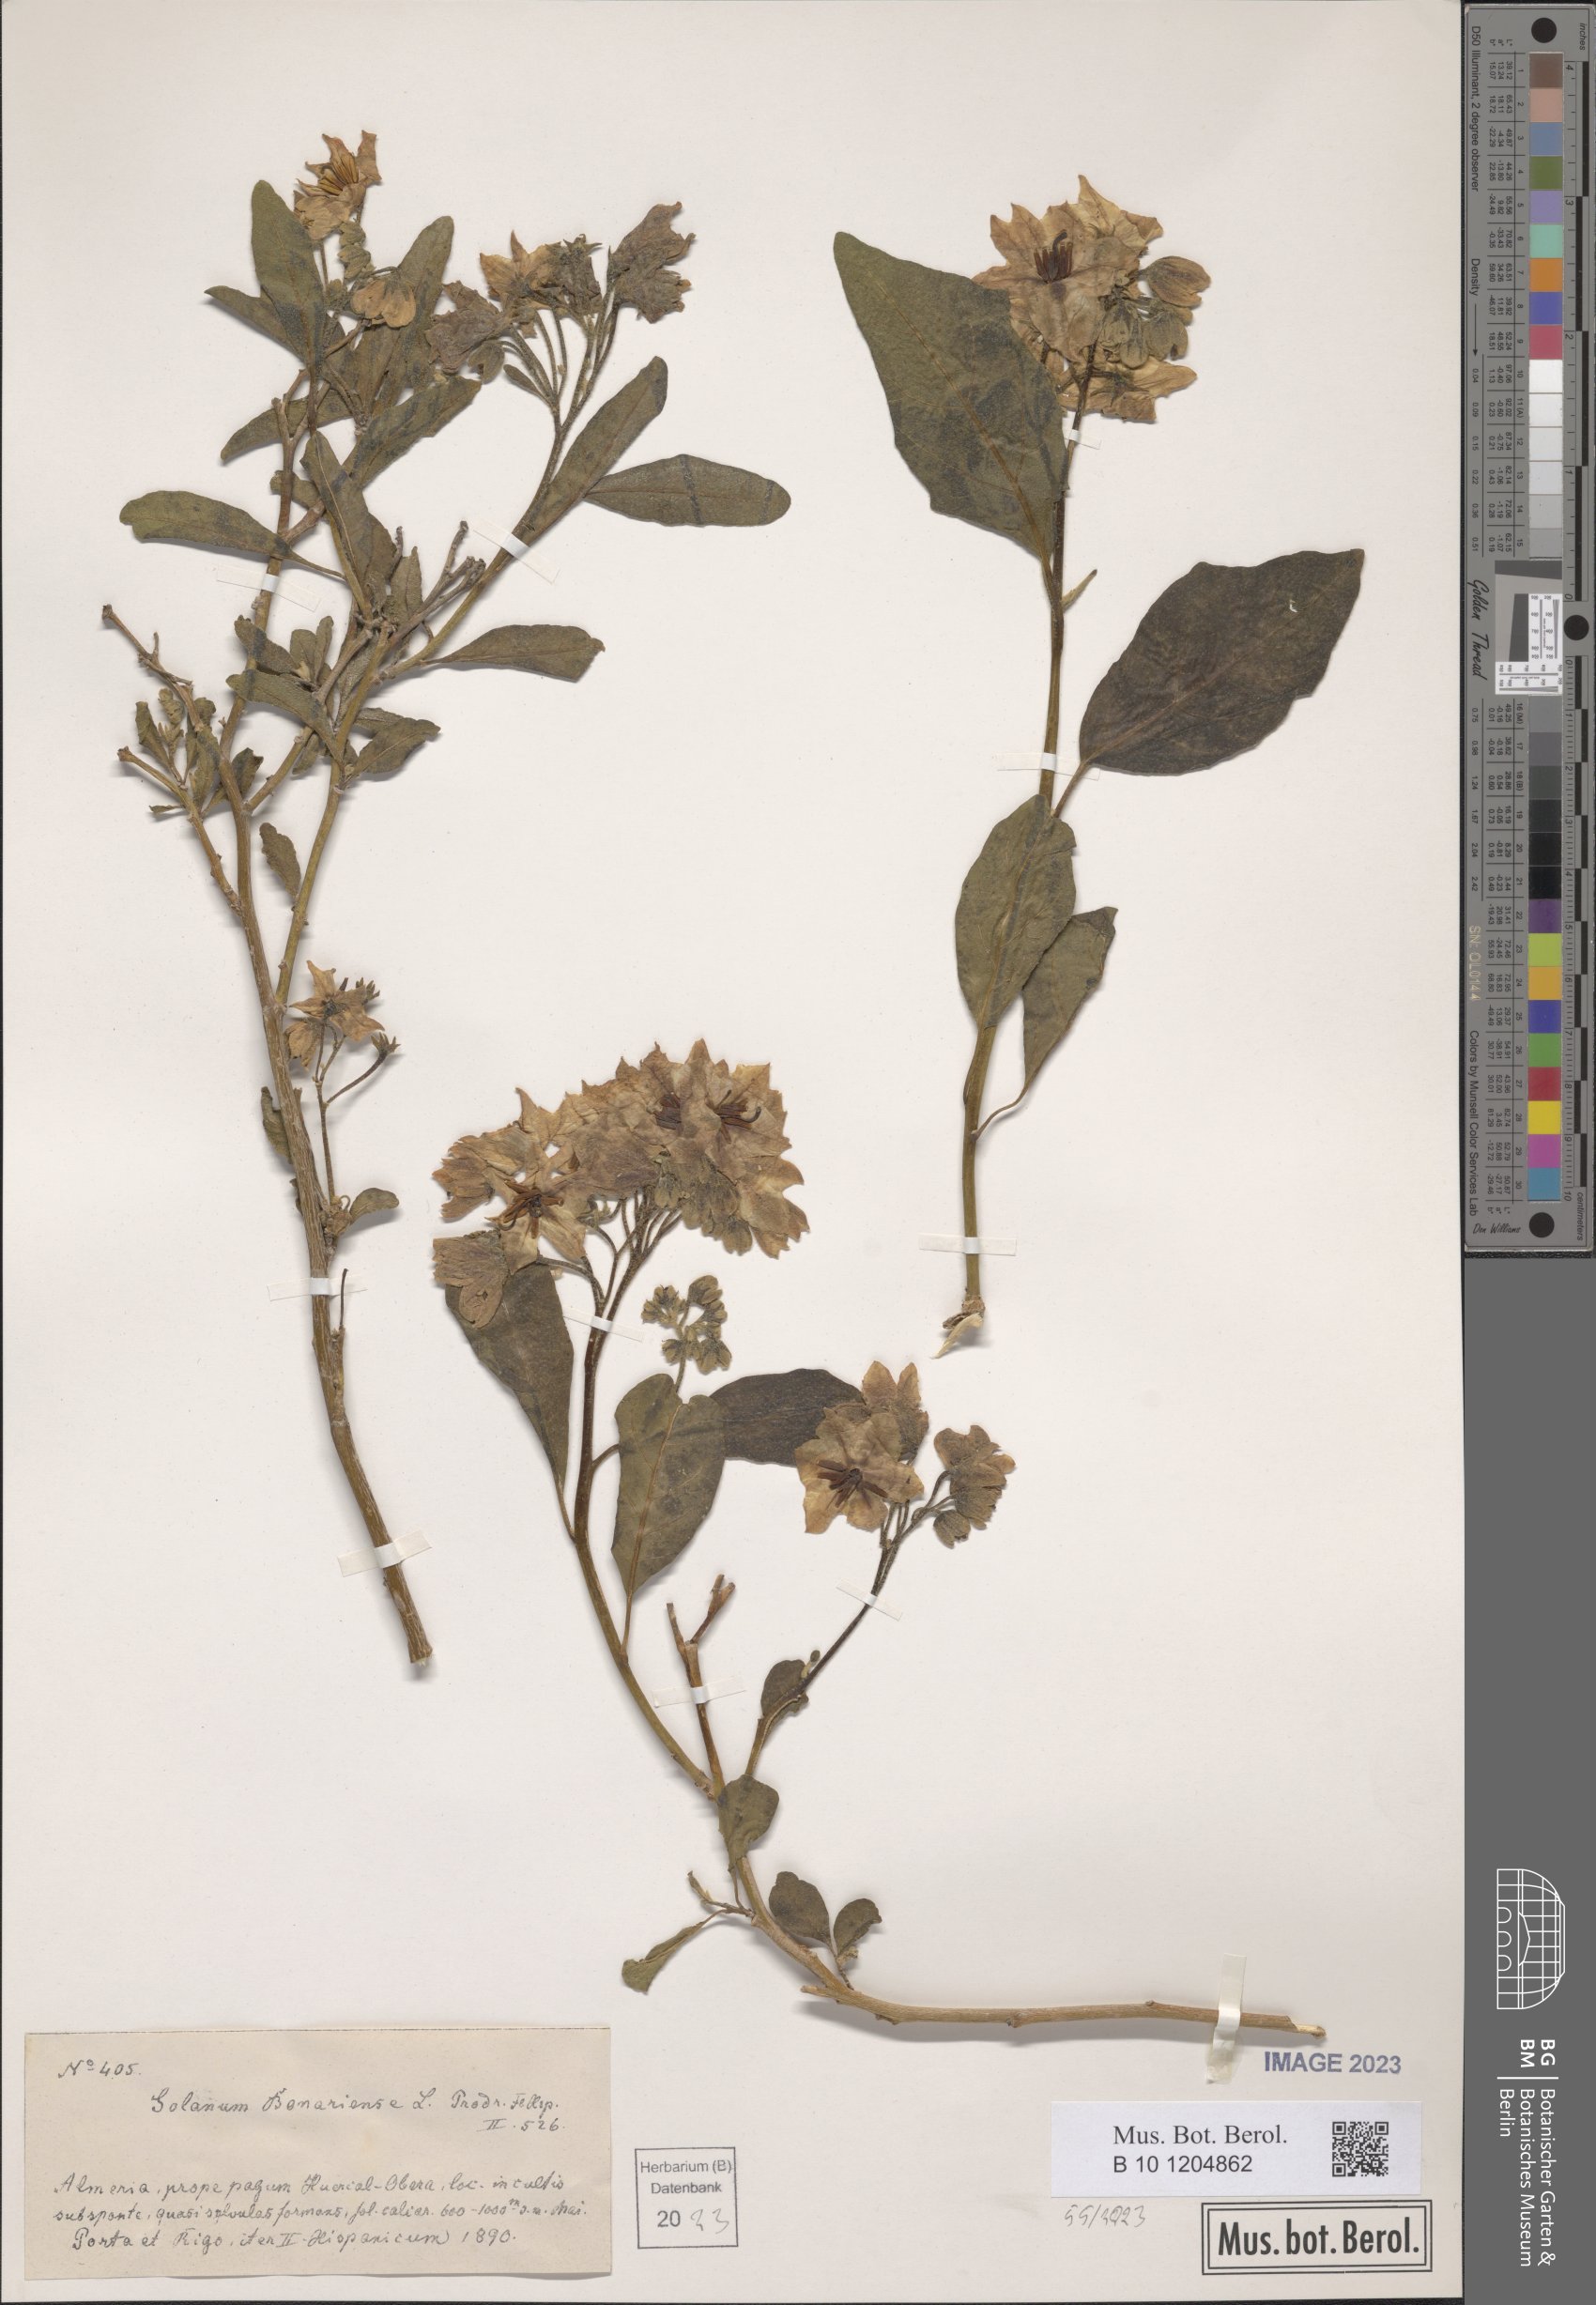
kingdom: Plantae
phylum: Tracheophyta
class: Magnoliopsida
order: Solanales
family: Solanaceae
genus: Solanum
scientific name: Solanum bonariense
